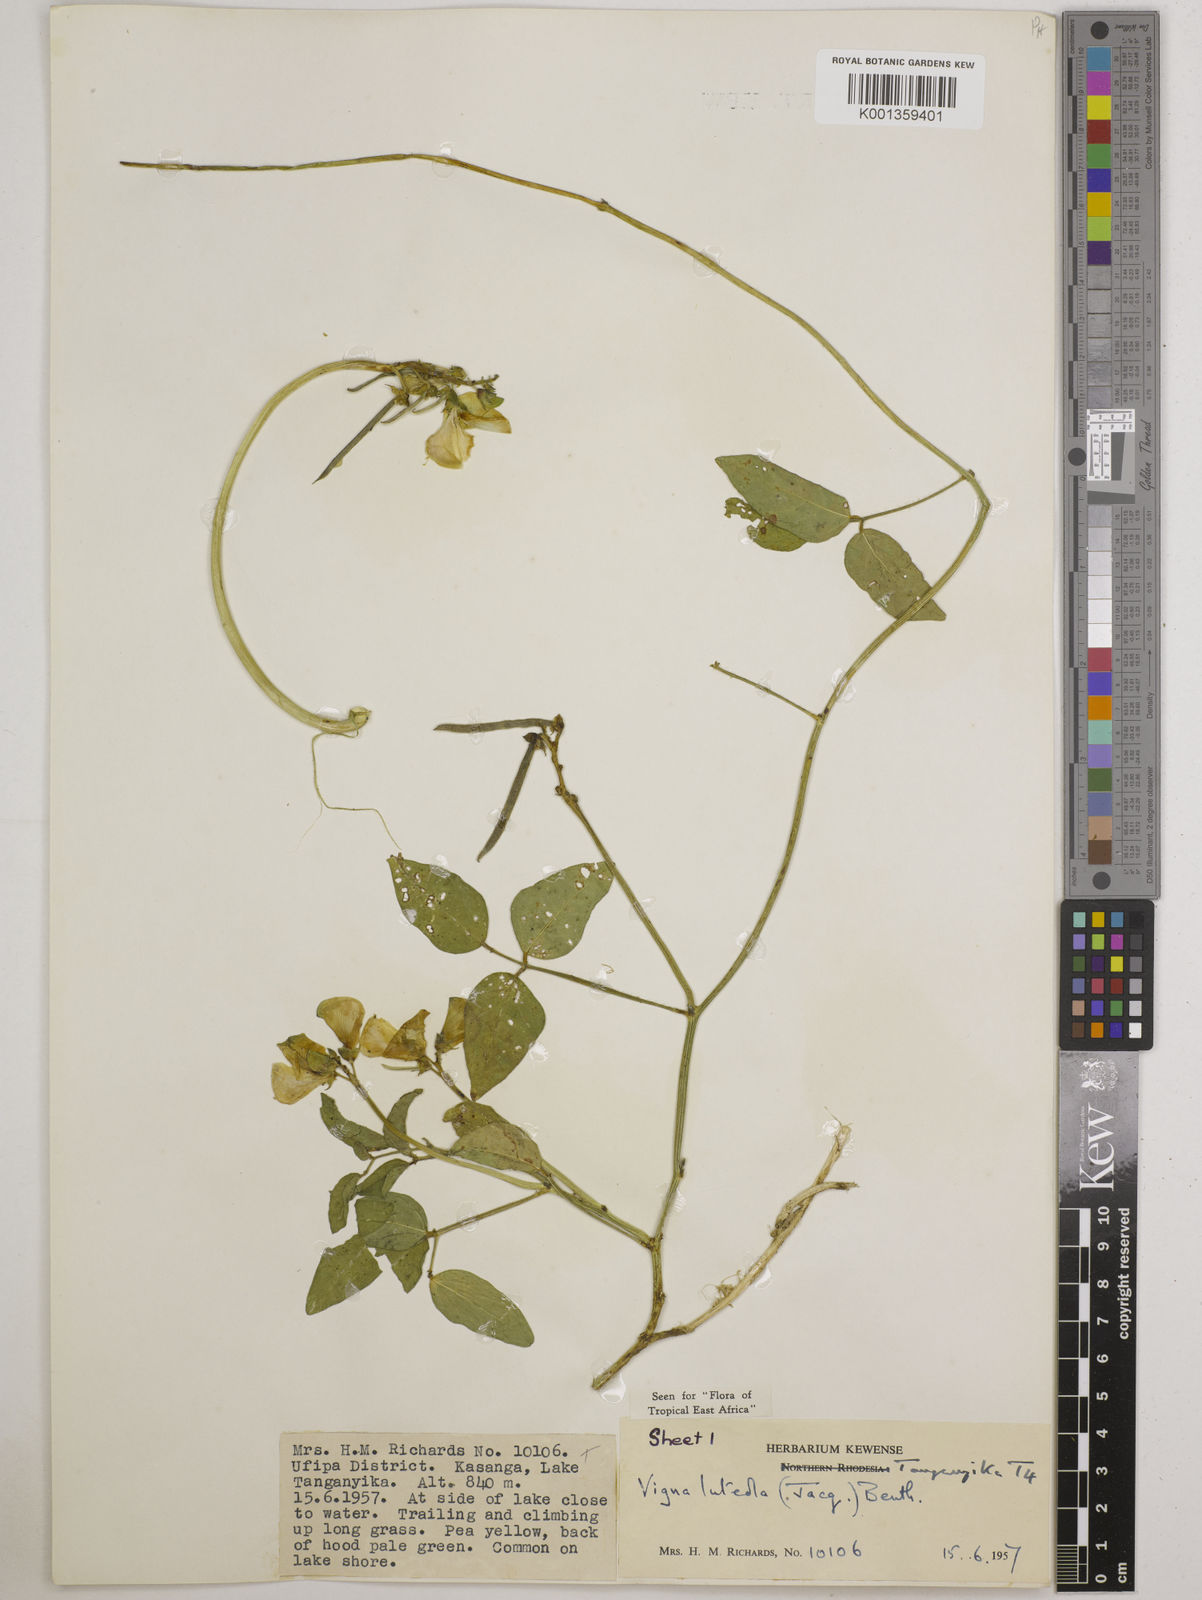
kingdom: Plantae
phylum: Tracheophyta
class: Magnoliopsida
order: Fabales
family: Fabaceae
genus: Vigna
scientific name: Vigna luteola
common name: Hairypod cowpea
